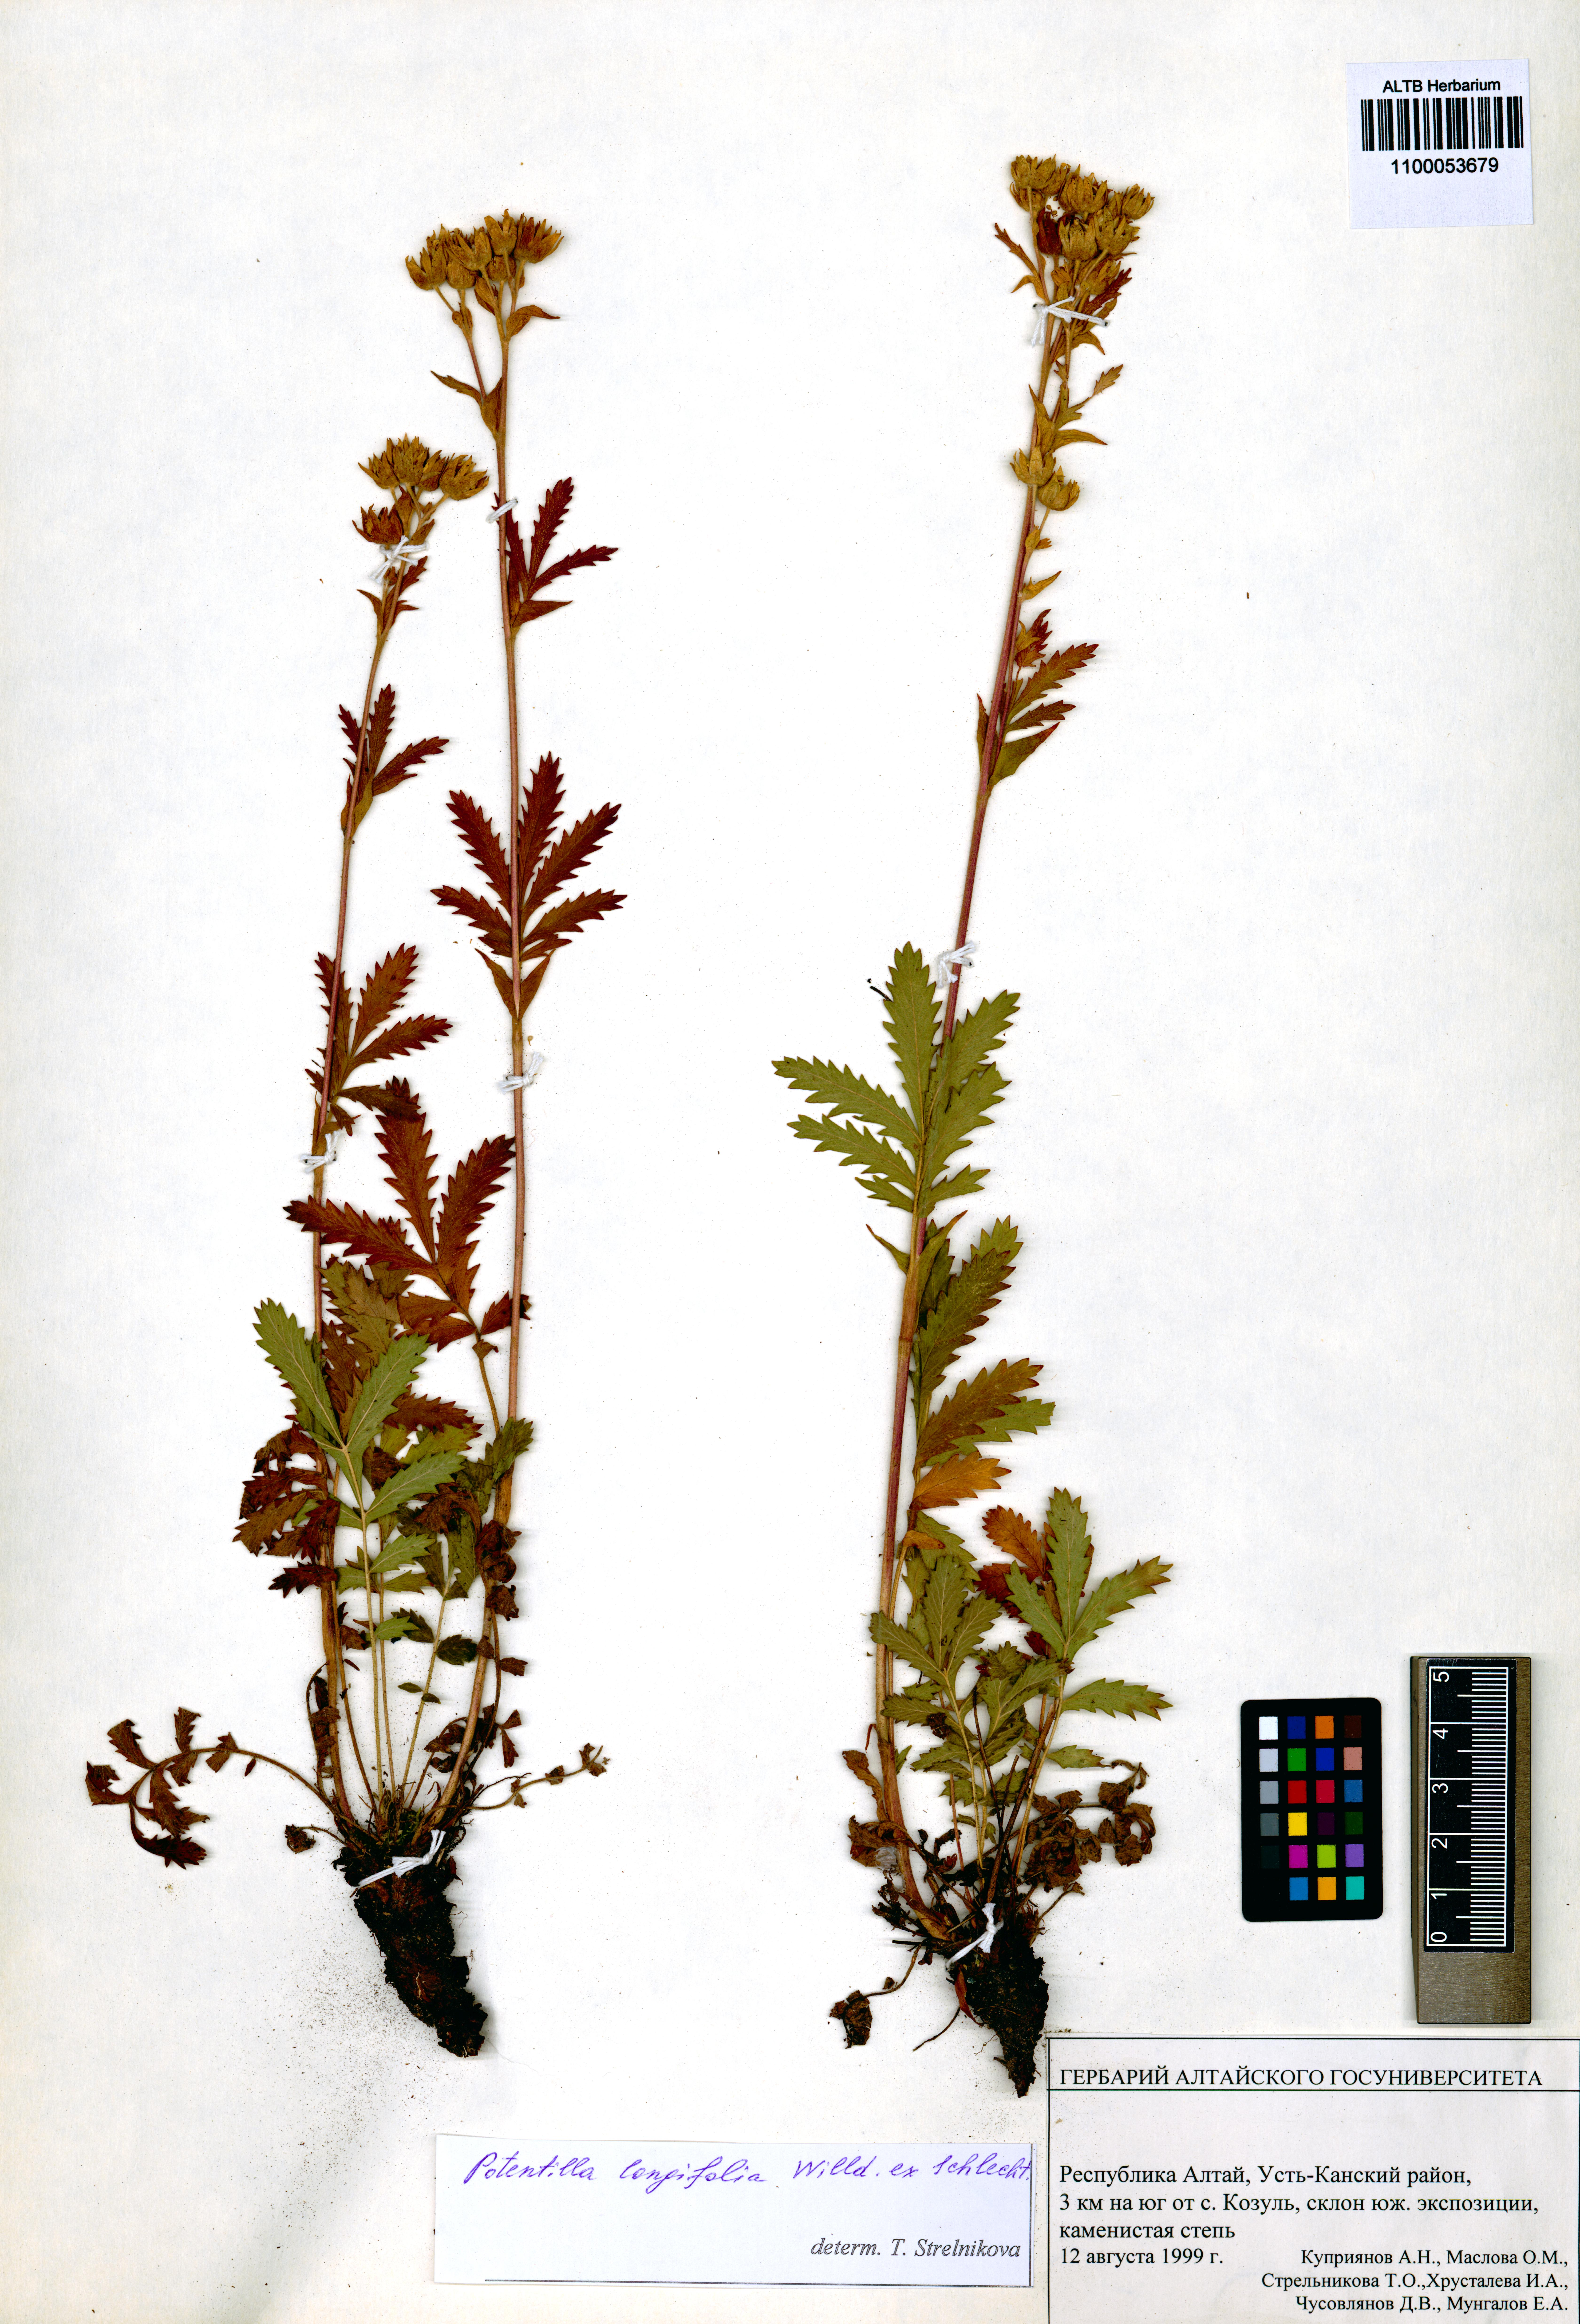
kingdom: Plantae
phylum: Tracheophyta
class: Magnoliopsida
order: Rosales
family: Rosaceae
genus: Potentilla
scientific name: Potentilla longifolia
